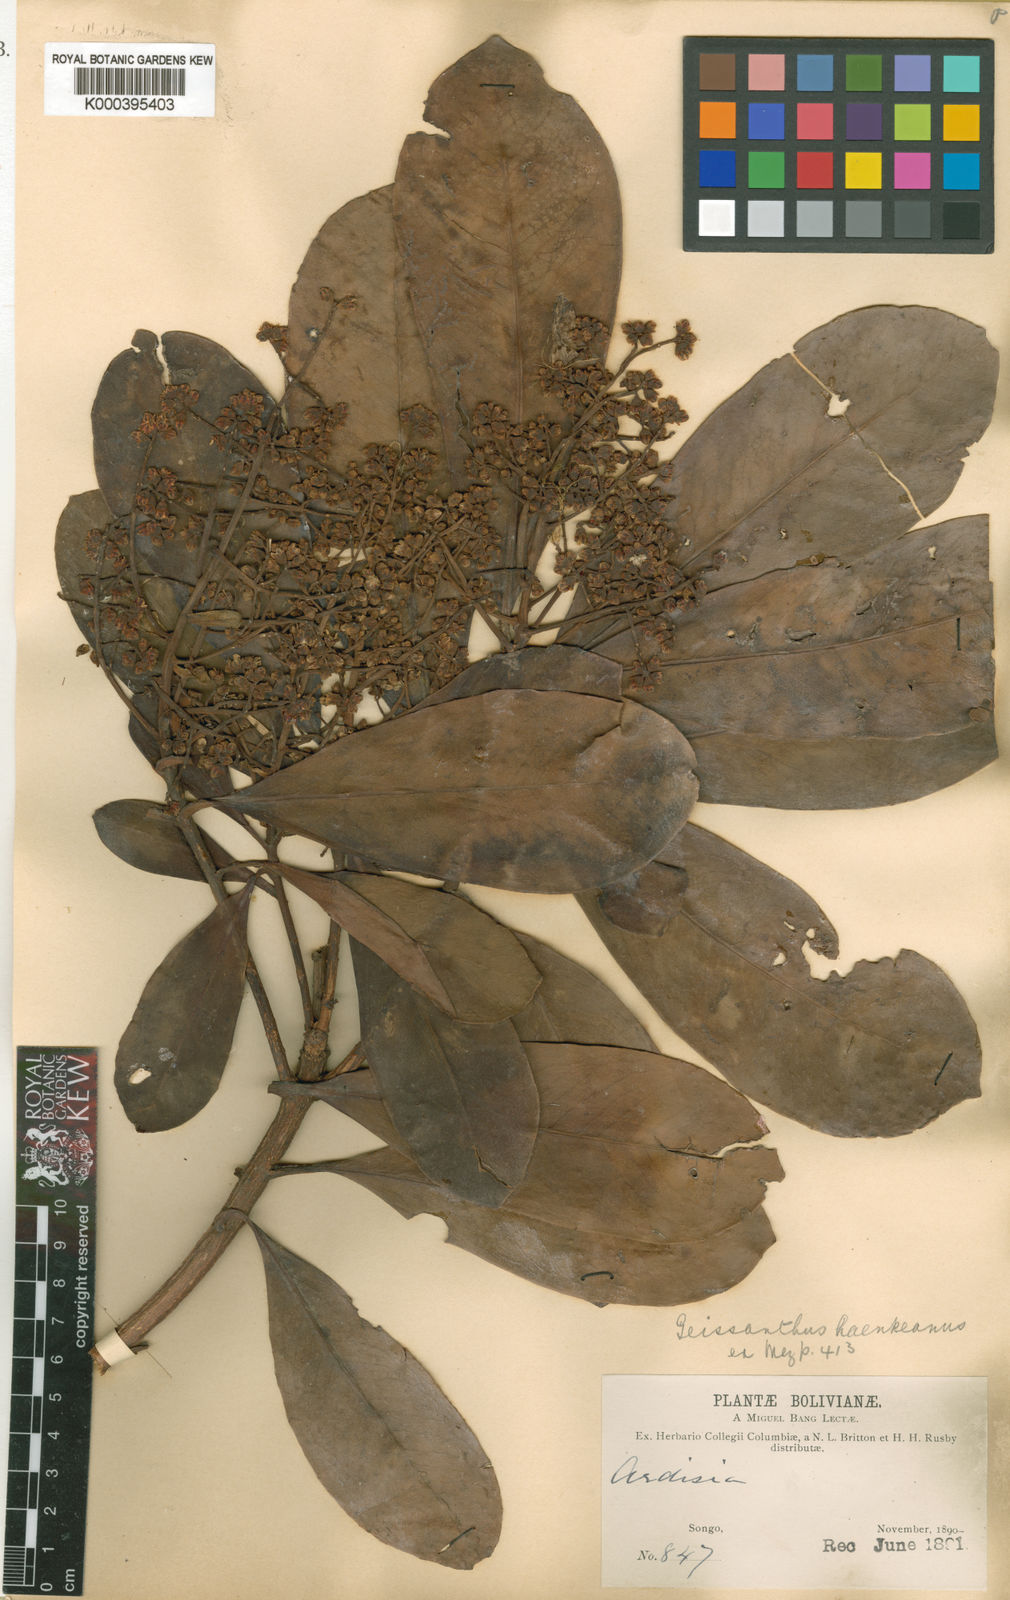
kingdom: Plantae
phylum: Tracheophyta
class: Magnoliopsida
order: Ericales
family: Primulaceae
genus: Geissanthus
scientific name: Geissanthus boliviana
